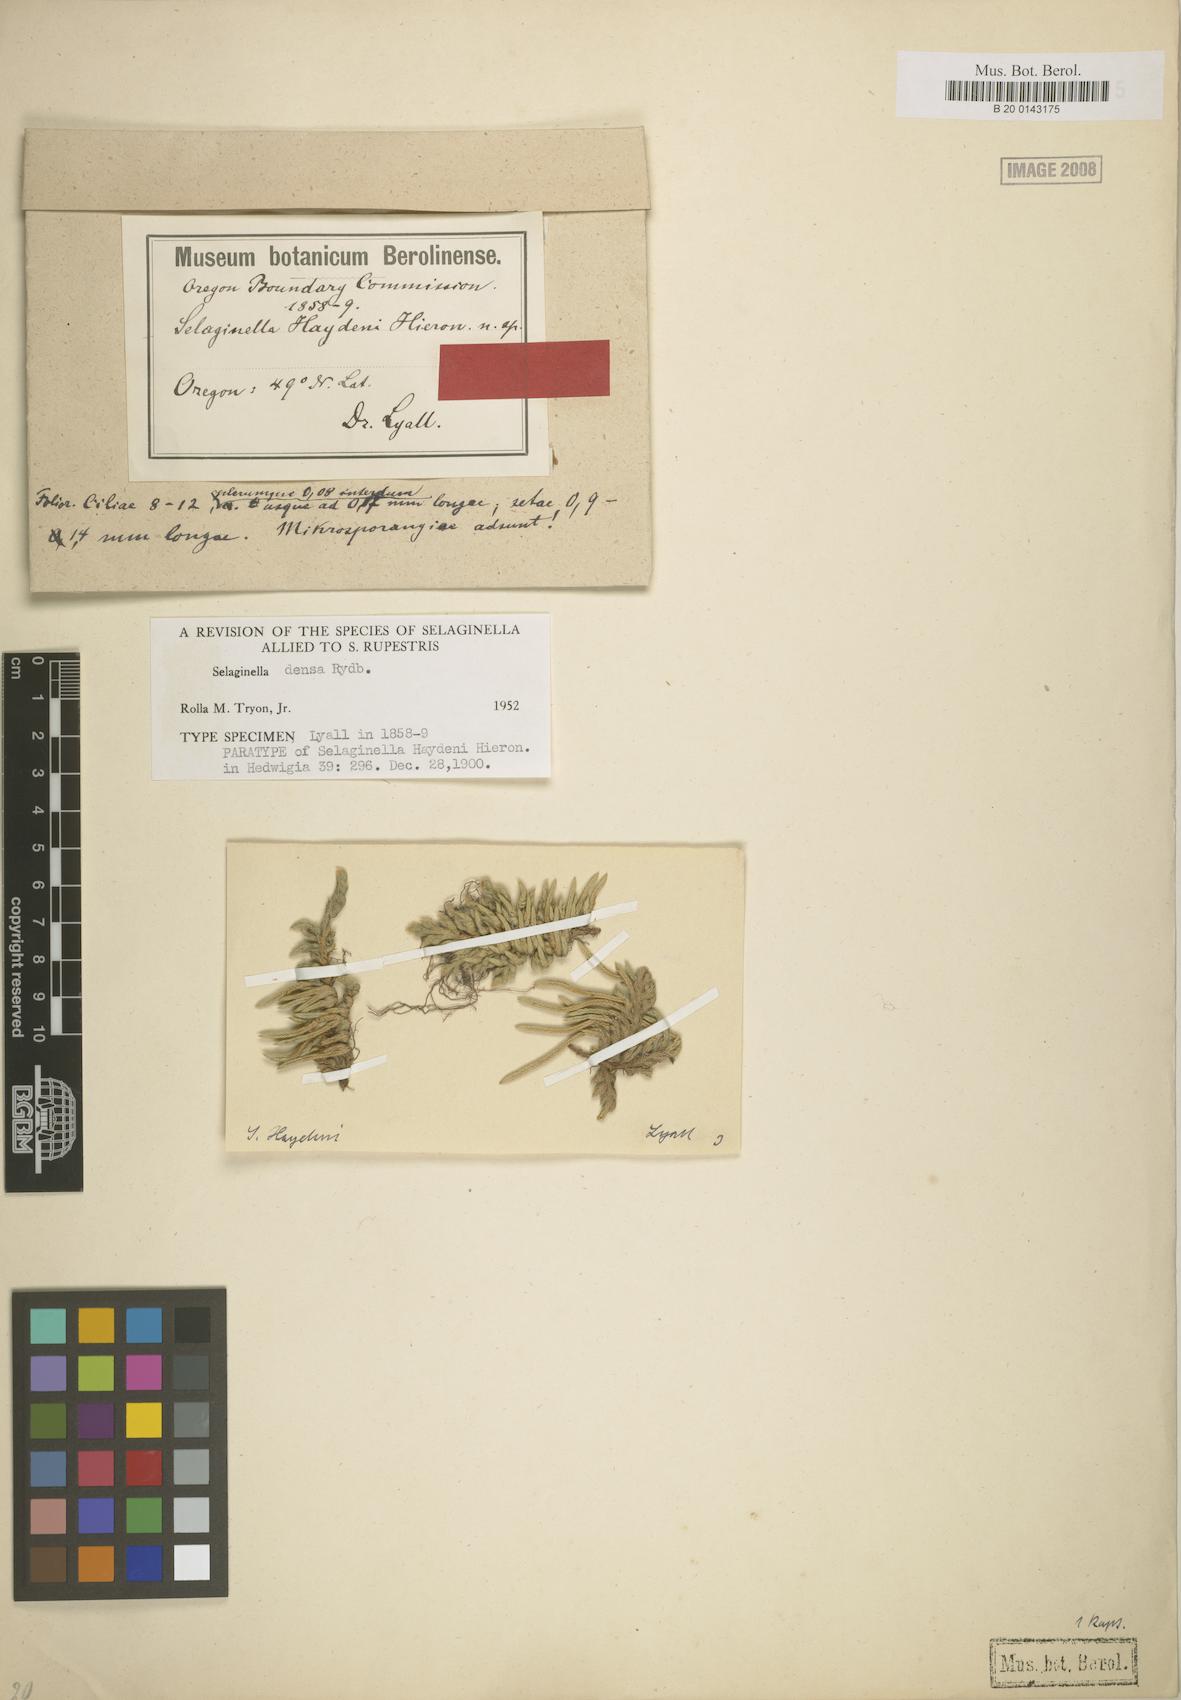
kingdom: Plantae
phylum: Tracheophyta
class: Lycopodiopsida
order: Selaginellales
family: Selaginellaceae
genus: Selaginella
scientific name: Selaginella densa
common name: Mountain spike-moss
